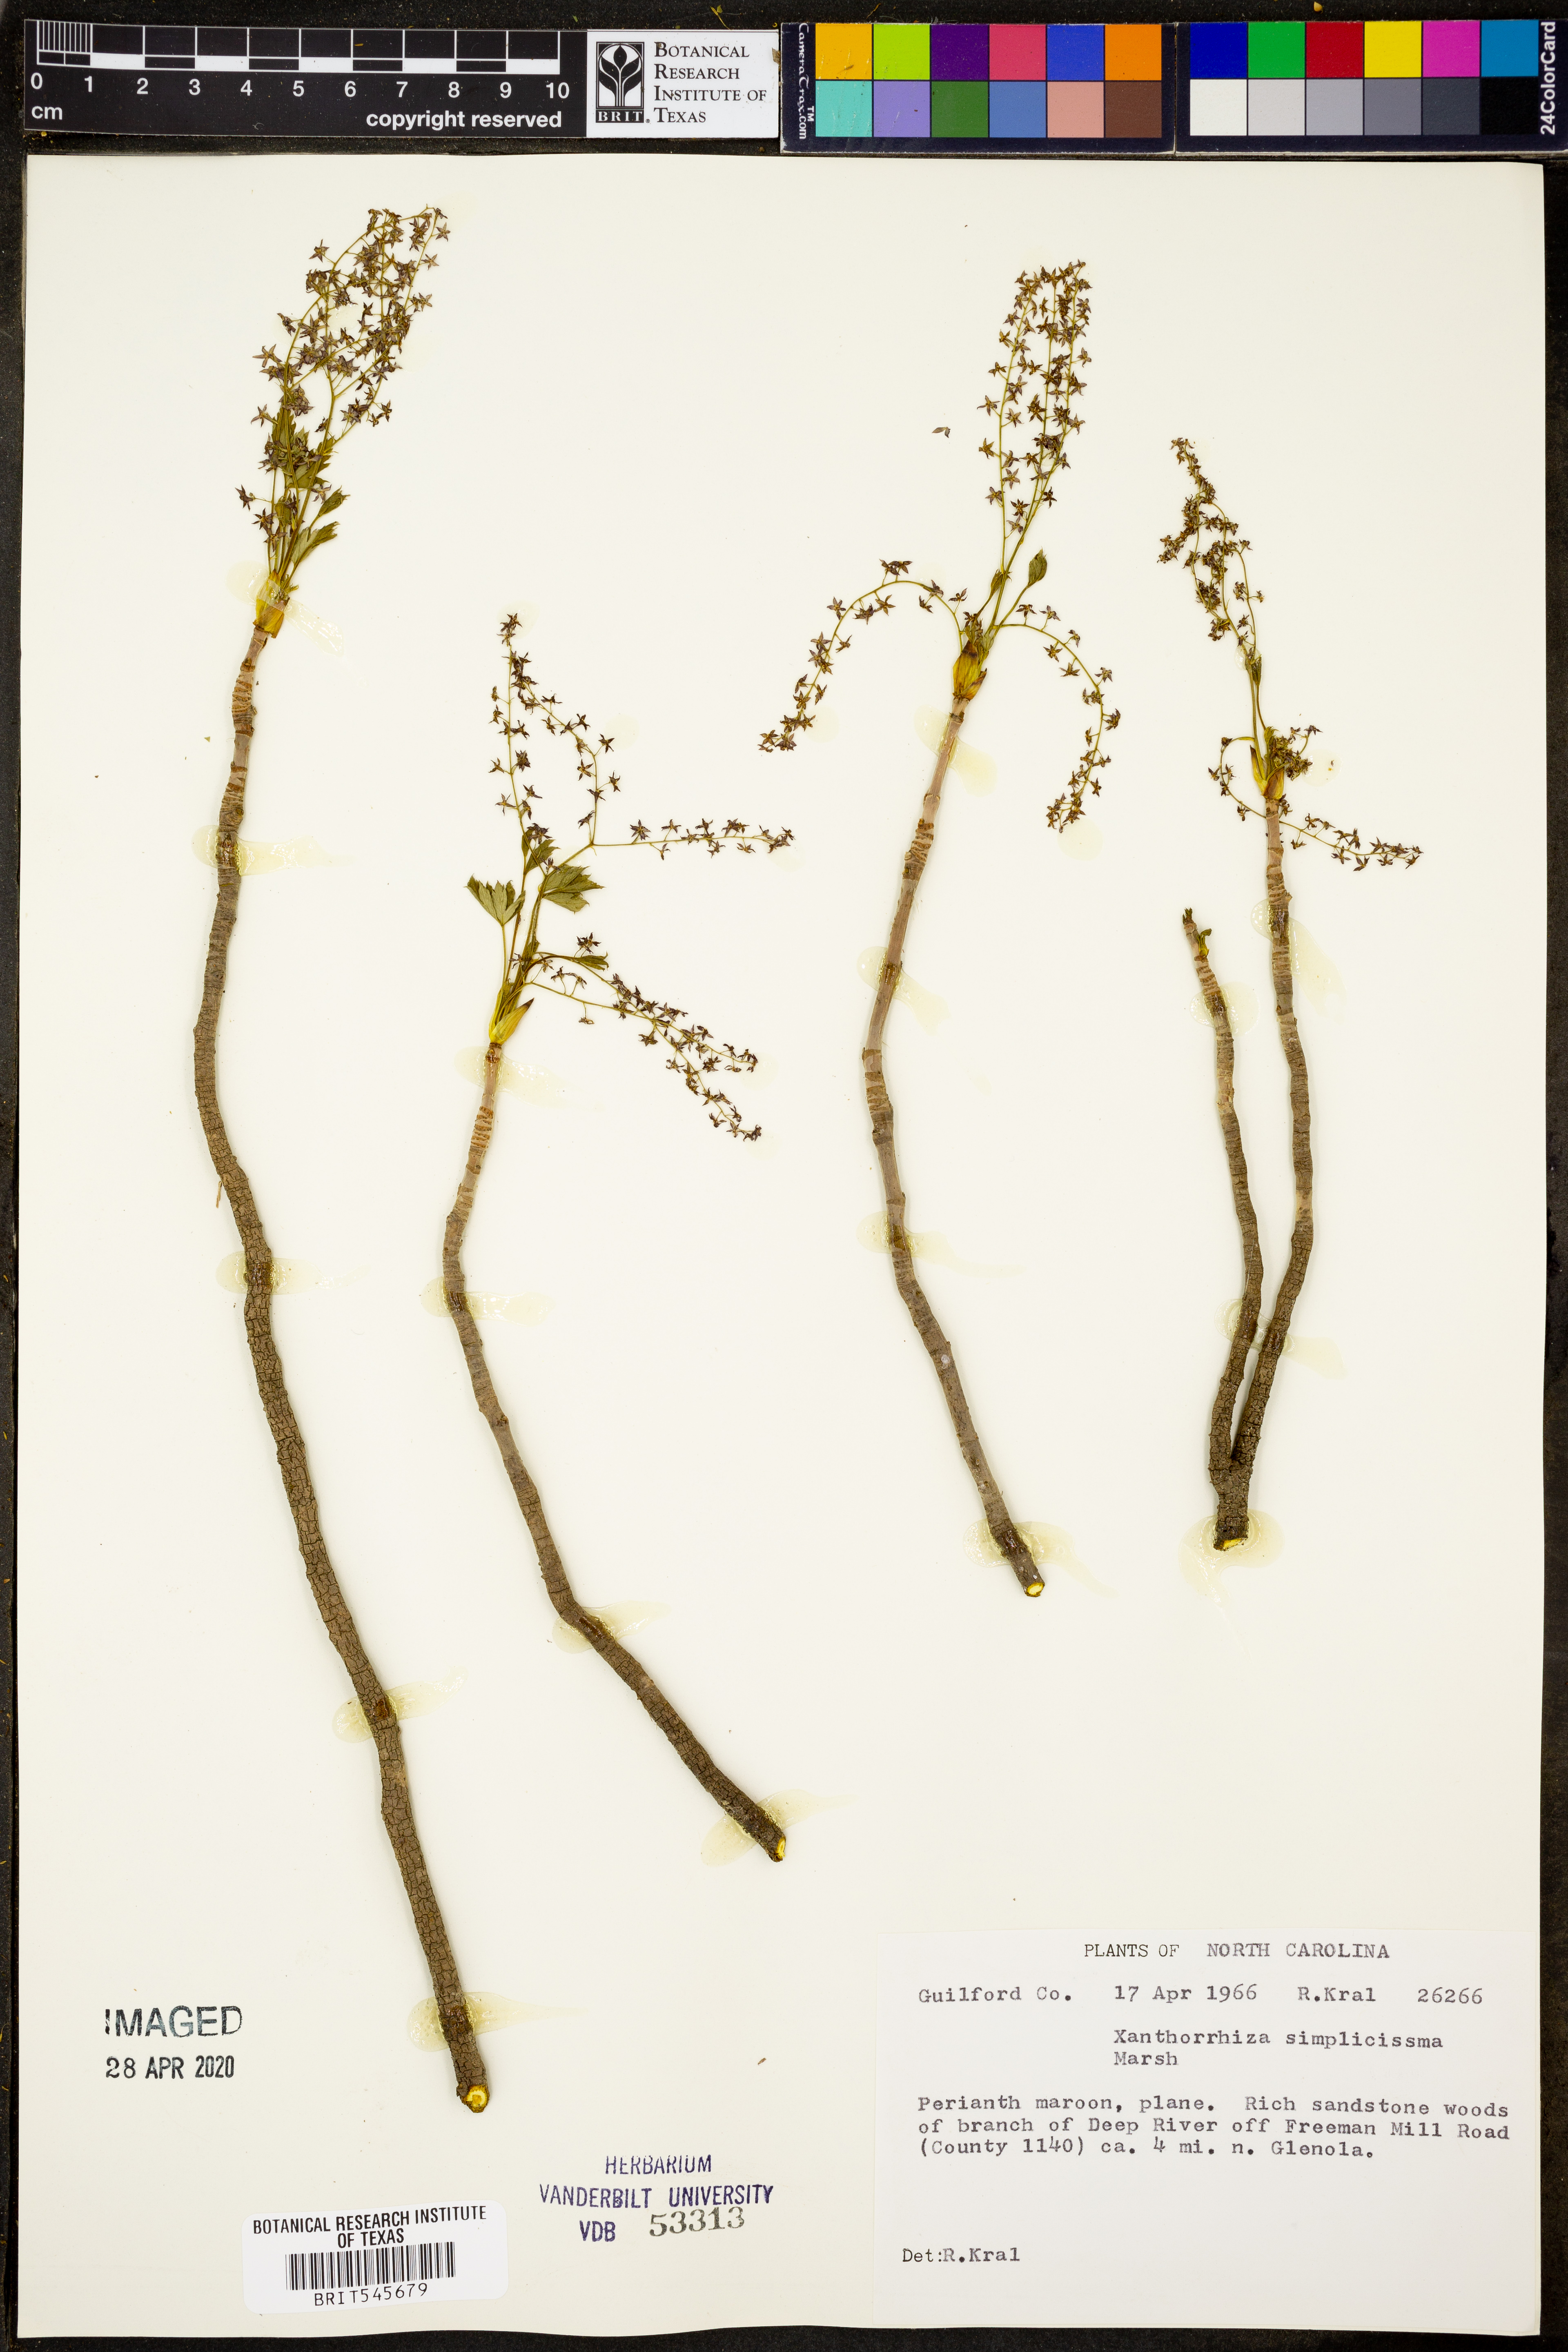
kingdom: Plantae
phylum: Tracheophyta
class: Magnoliopsida
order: Ranunculales
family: Ranunculaceae
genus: Xanthorhiza
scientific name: Xanthorhiza simplicissima
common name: Yellowroot
